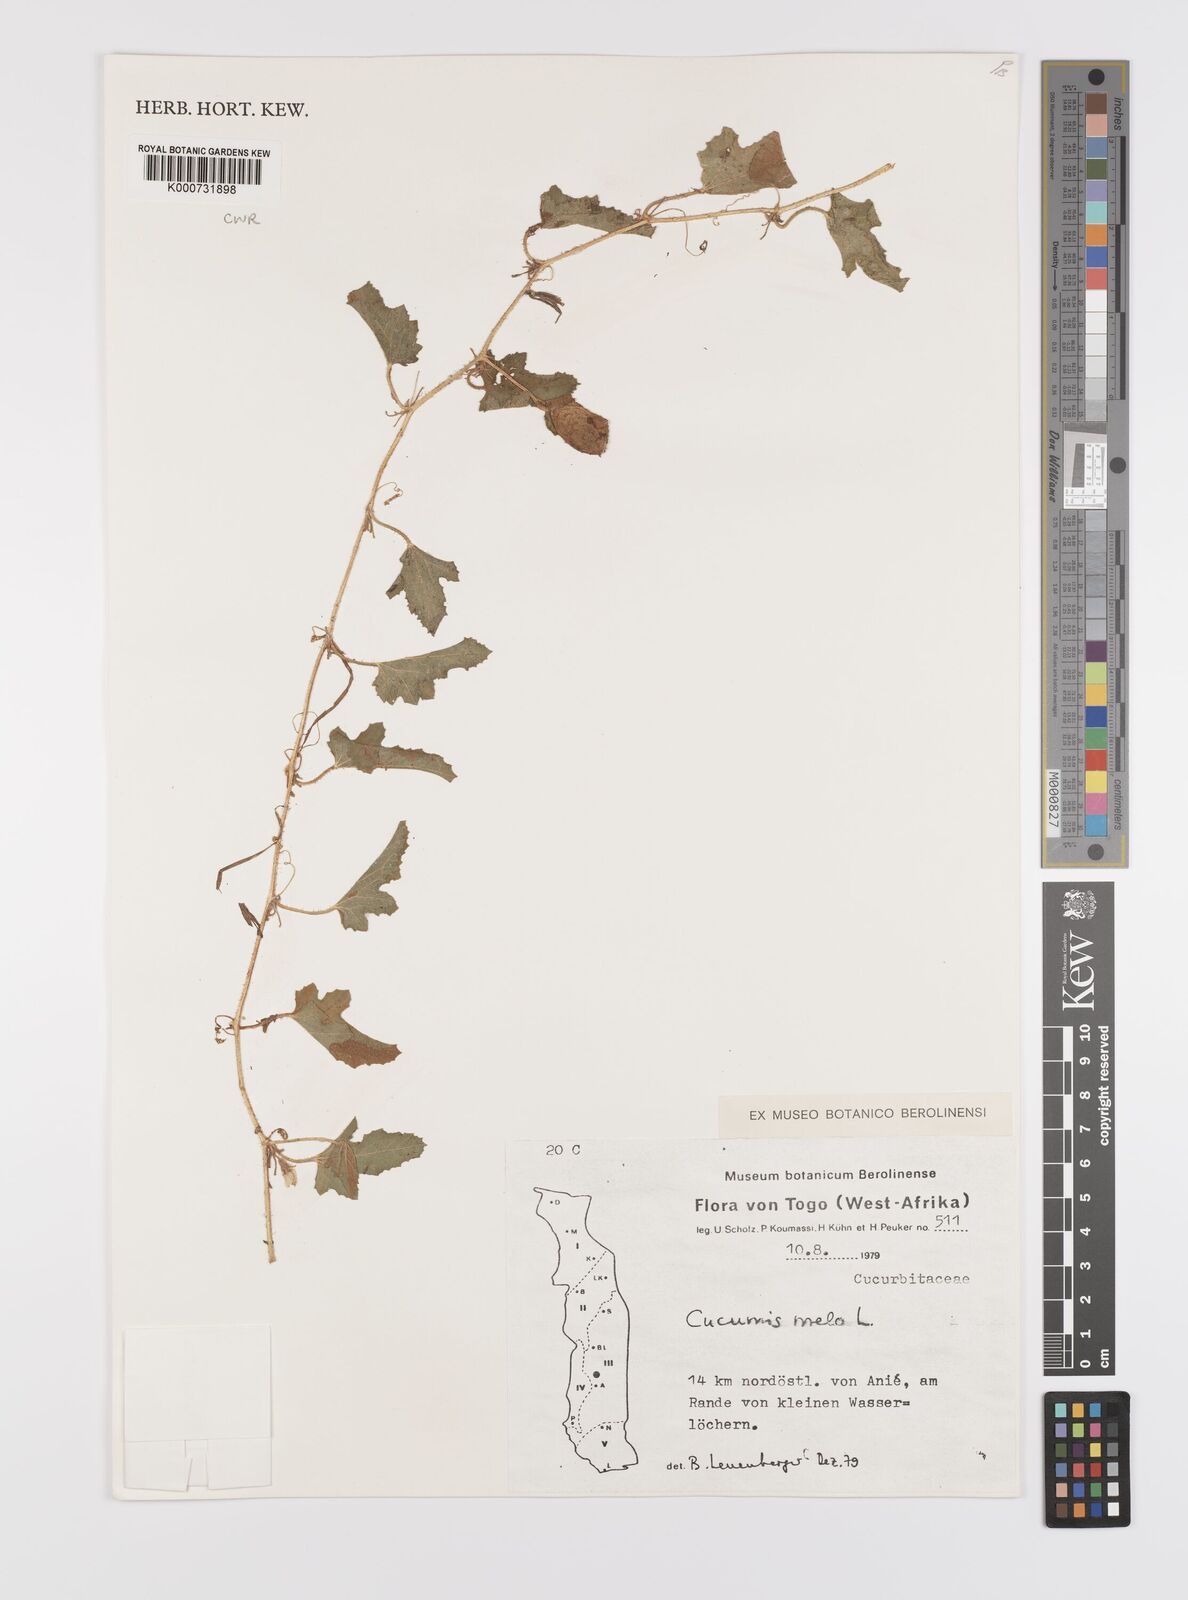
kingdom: Plantae
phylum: Tracheophyta
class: Magnoliopsida
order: Cucurbitales
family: Cucurbitaceae
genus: Cucumis
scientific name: Cucumis melo
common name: Melon
